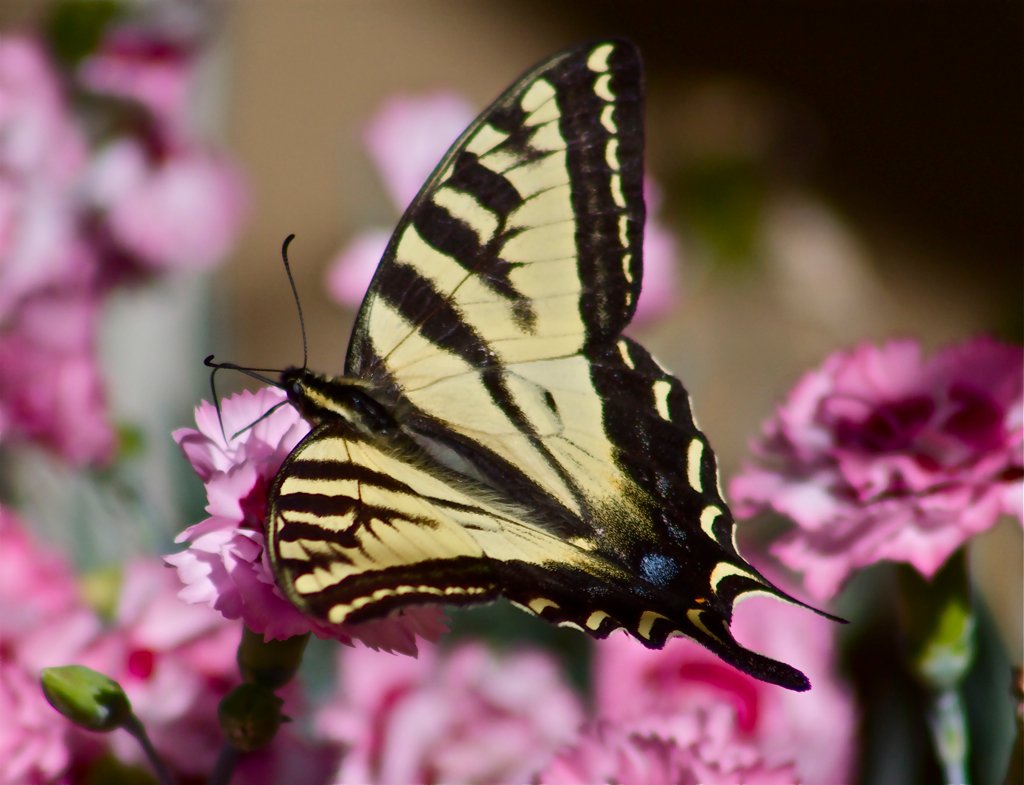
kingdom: Animalia
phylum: Arthropoda
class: Insecta
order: Lepidoptera
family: Papilionidae
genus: Pterourus
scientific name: Pterourus rutulus
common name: Western Tiger Swallowtail
